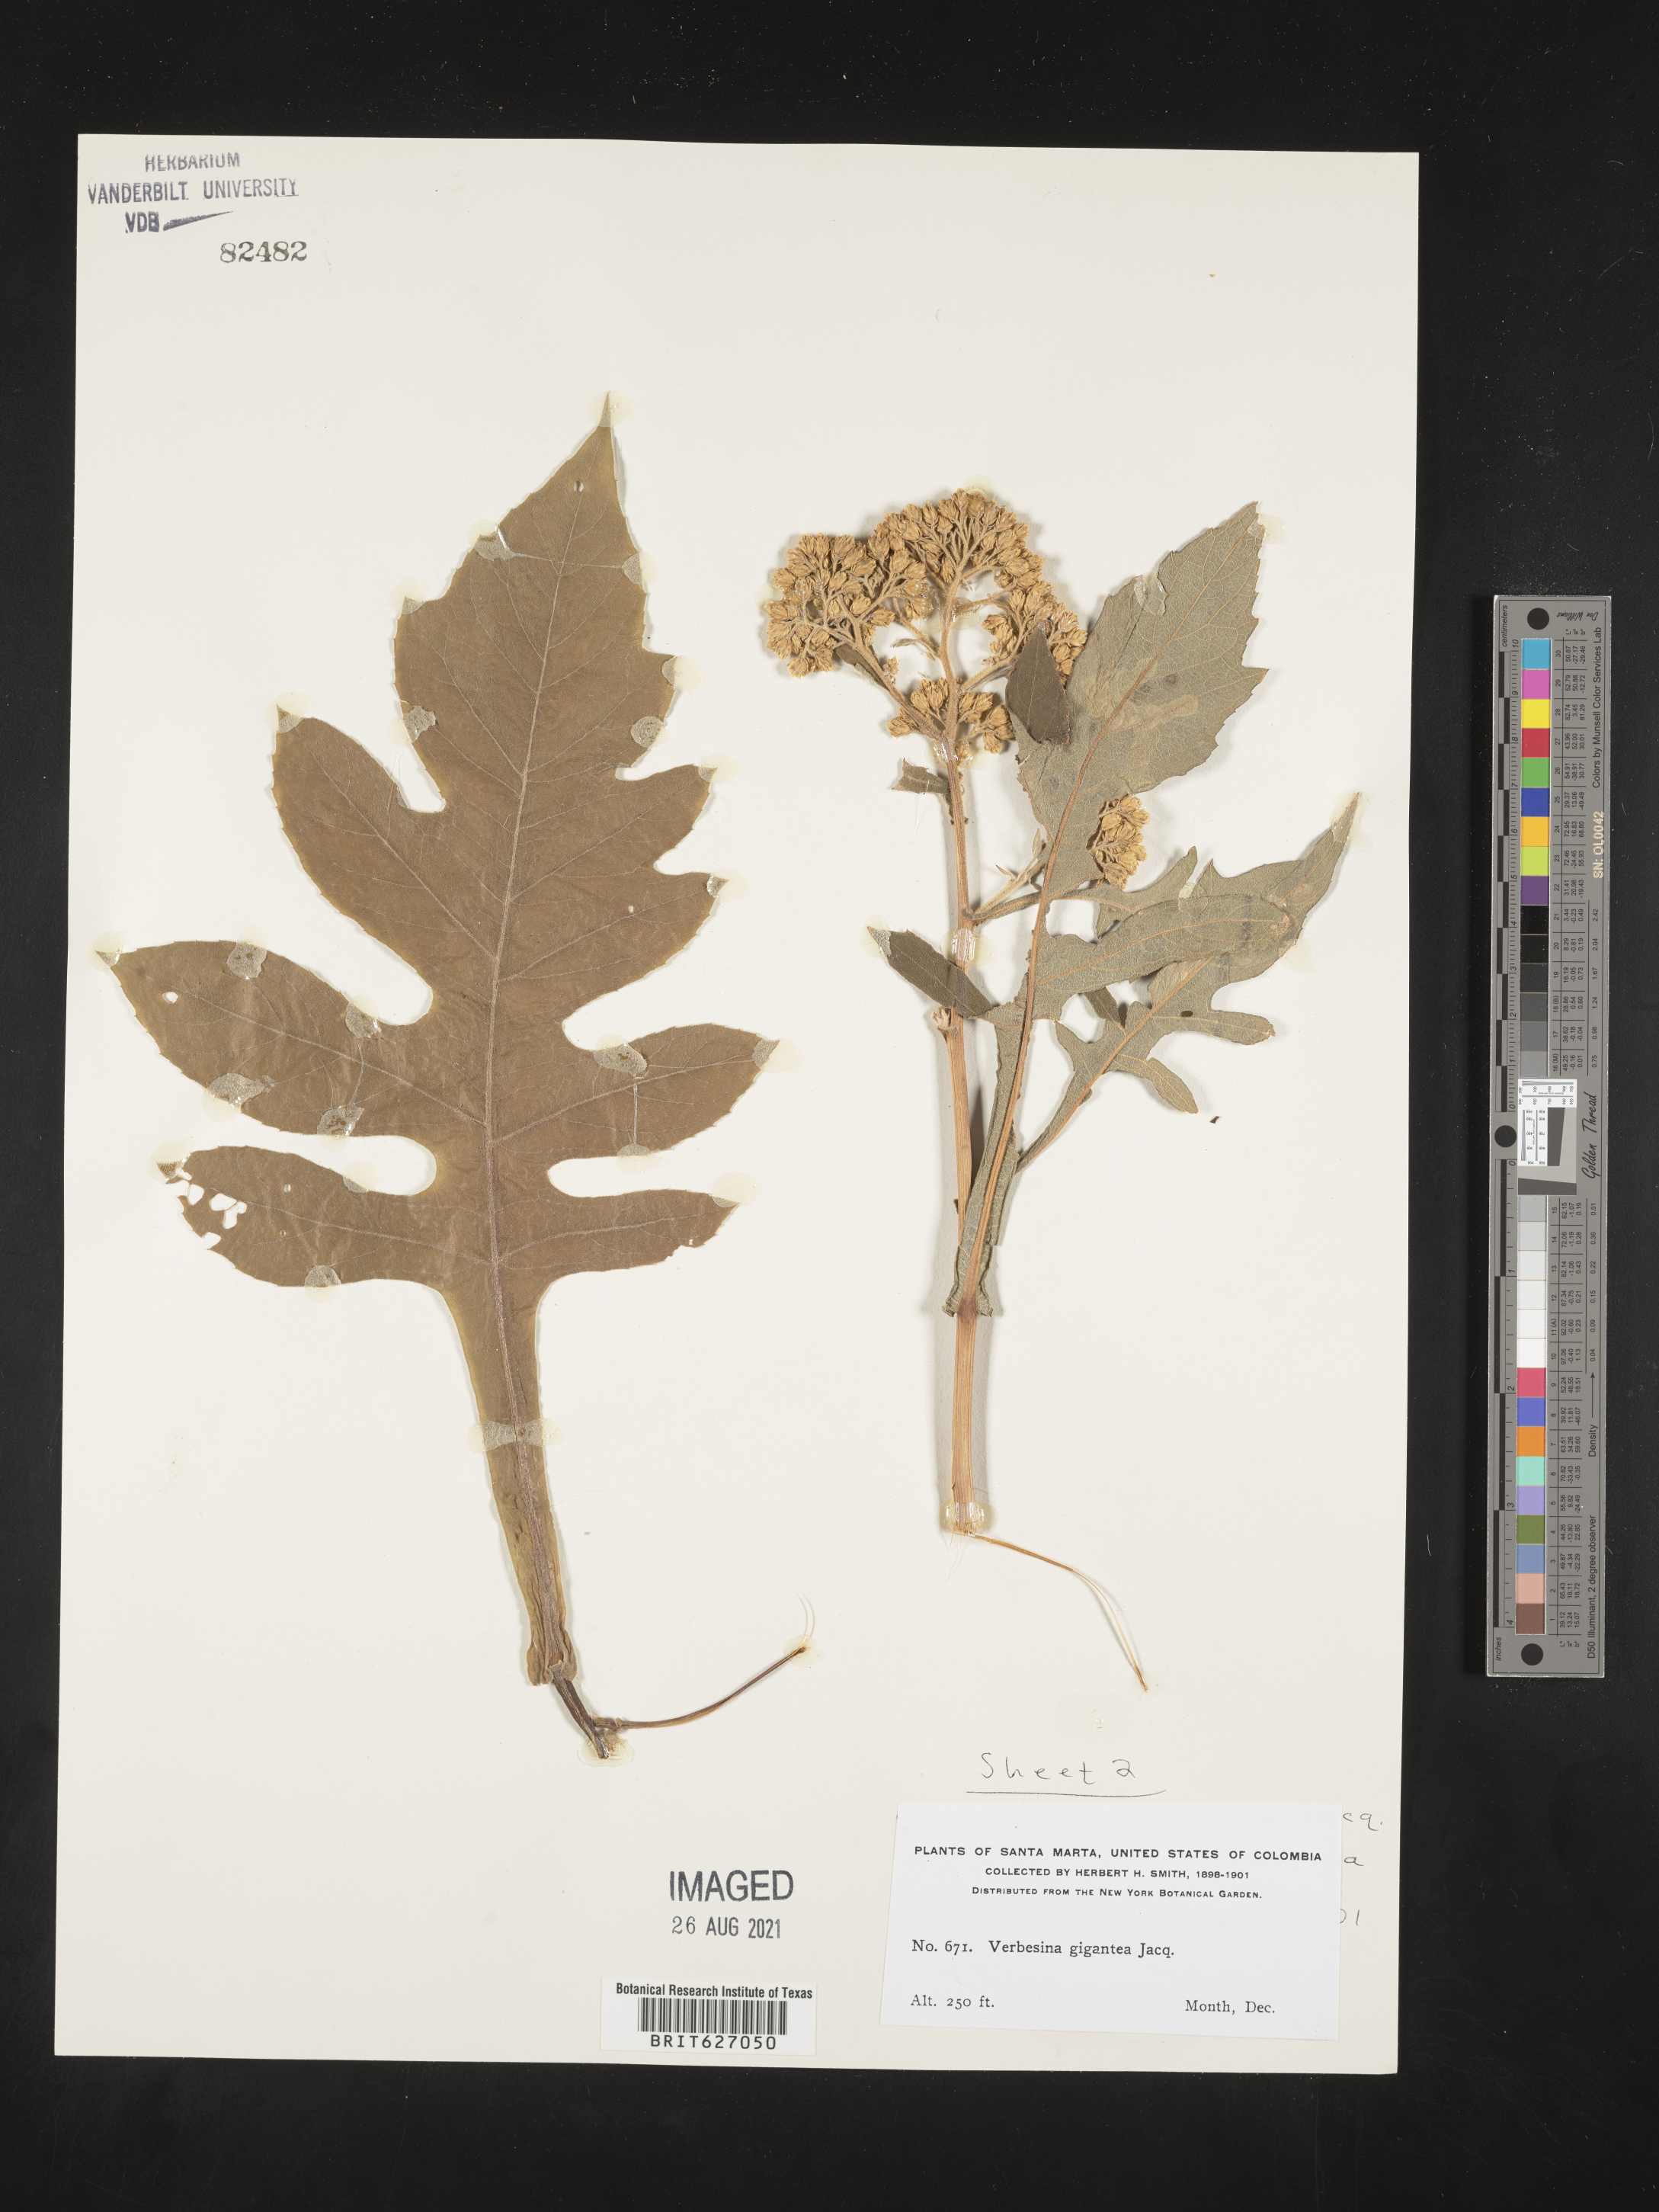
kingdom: Plantae
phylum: Tracheophyta
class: Magnoliopsida
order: Asterales
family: Asteraceae
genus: Verbesina
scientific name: Verbesina gigantea
